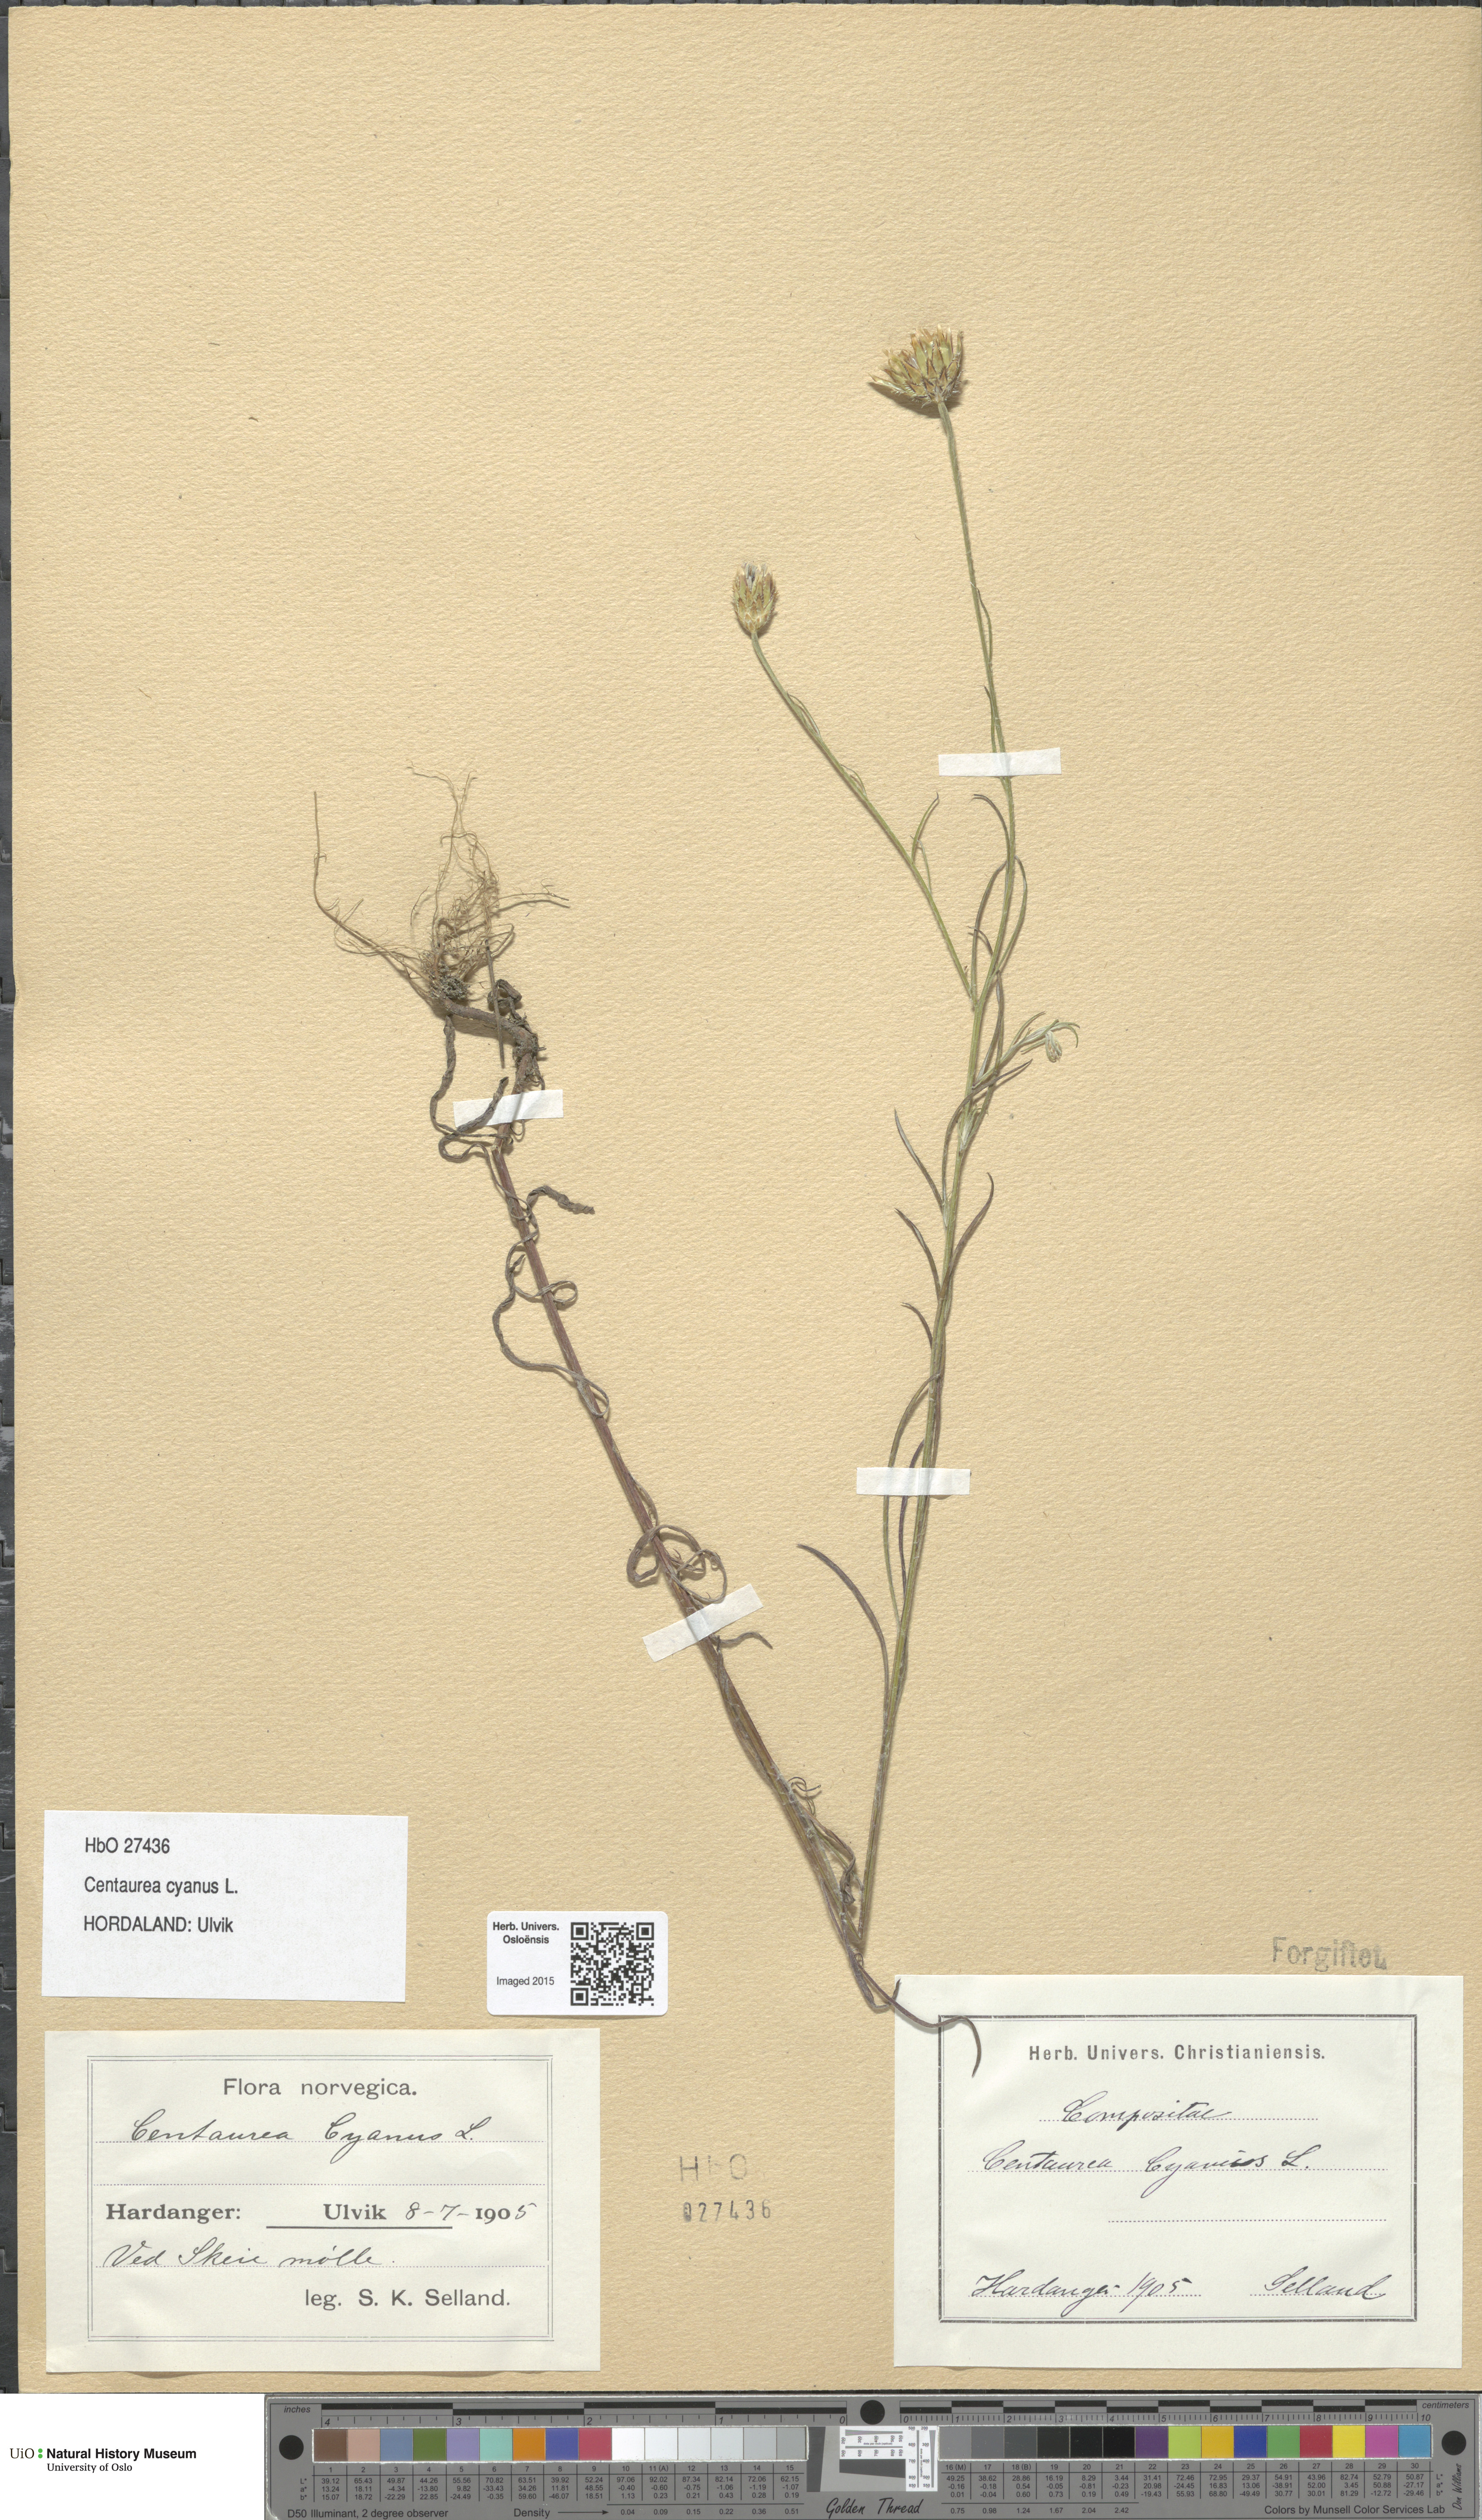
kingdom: Plantae
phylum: Tracheophyta
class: Magnoliopsida
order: Asterales
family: Asteraceae
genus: Centaurea
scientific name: Centaurea cyanus
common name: Cornflower
